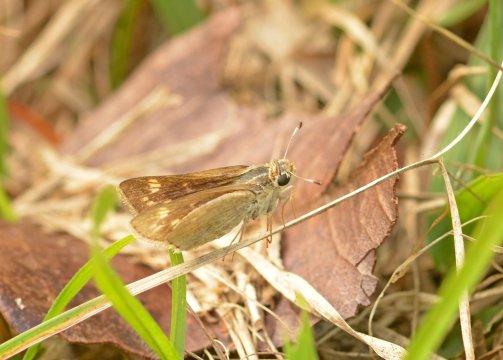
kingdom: Animalia
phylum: Arthropoda
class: Insecta
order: Lepidoptera
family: Hesperiidae
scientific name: Hesperiidae
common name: Skippers
